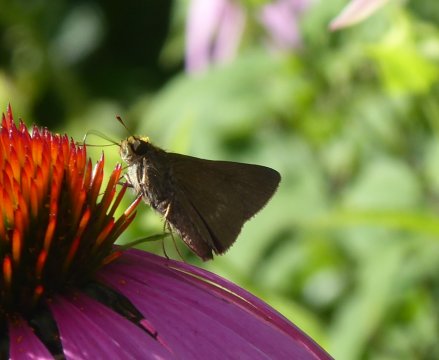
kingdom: Animalia
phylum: Arthropoda
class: Insecta
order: Lepidoptera
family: Hesperiidae
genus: Euphyes
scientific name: Euphyes vestris
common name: Dun Skipper
